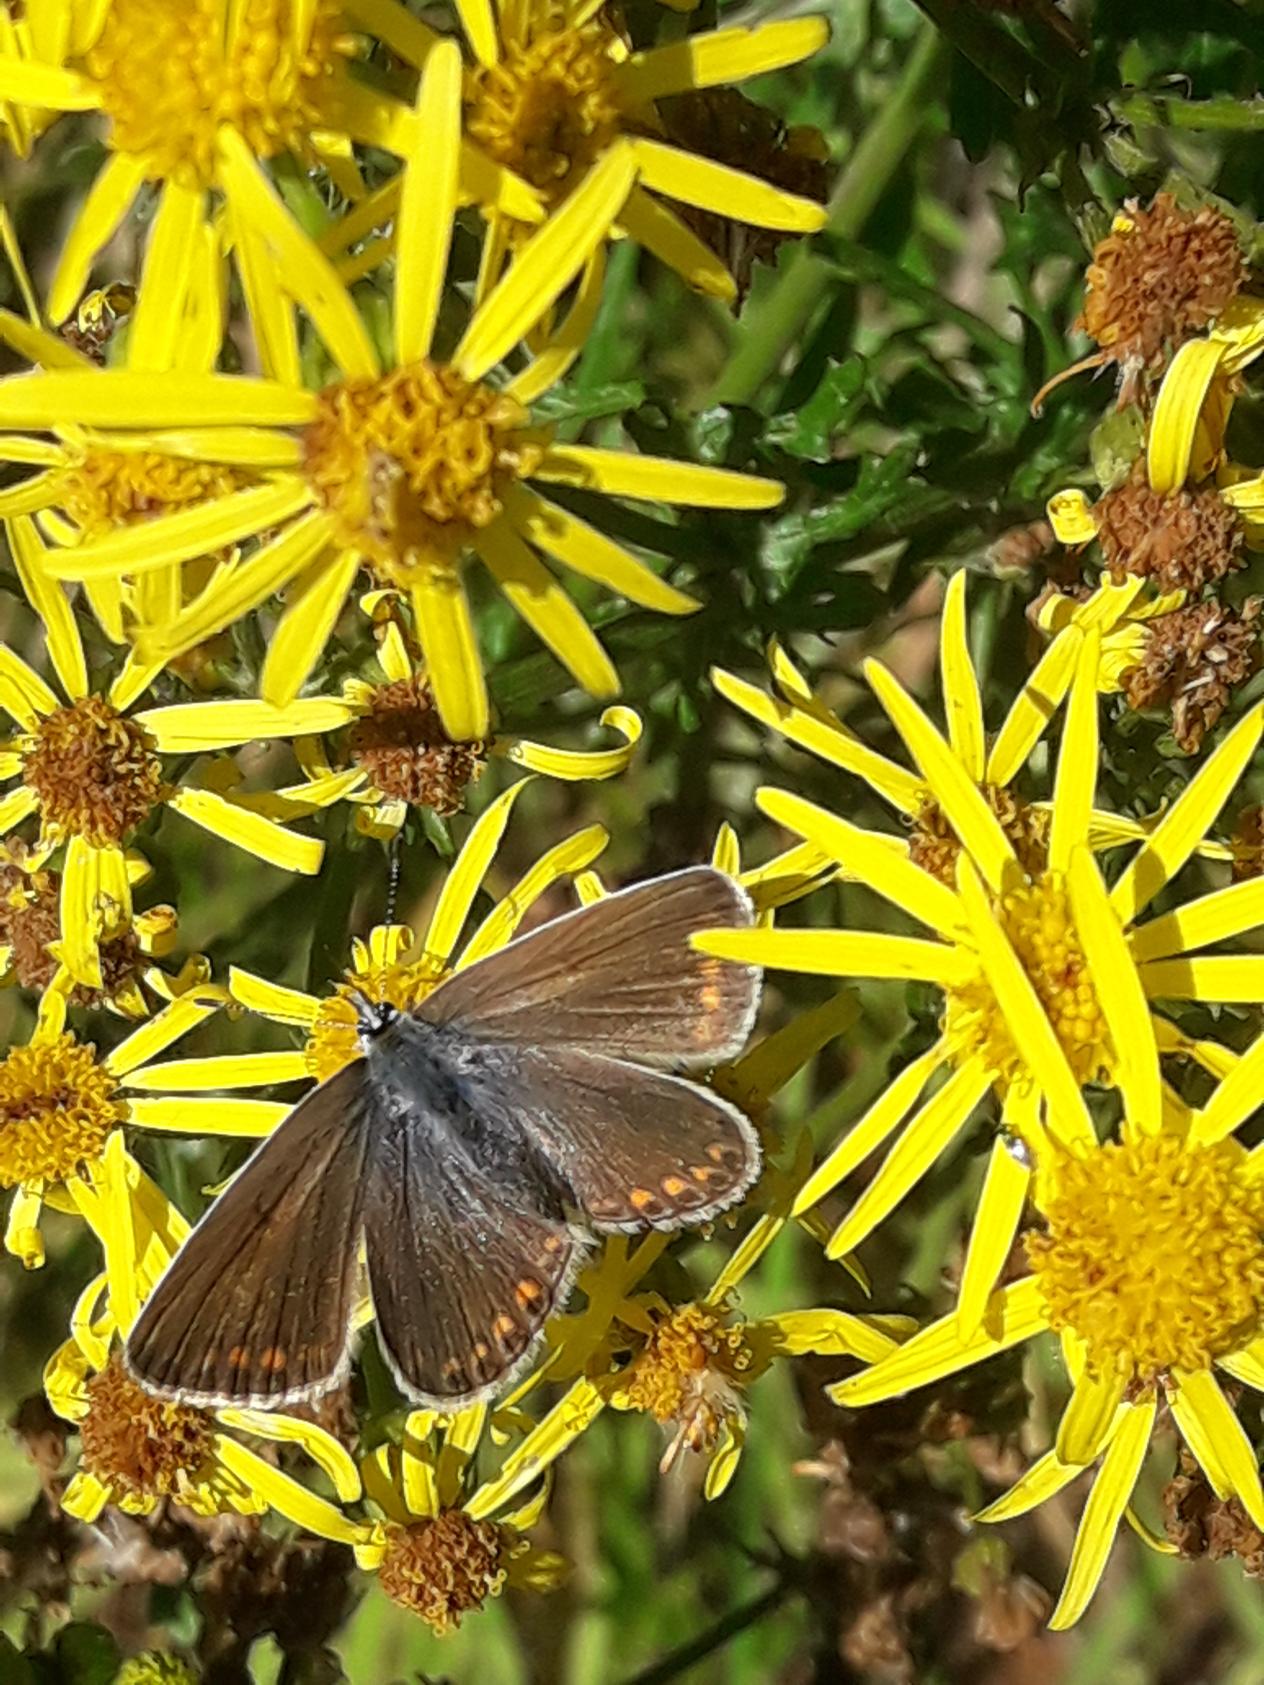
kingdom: Animalia
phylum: Arthropoda
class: Insecta
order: Lepidoptera
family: Lycaenidae
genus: Polyommatus
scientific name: Polyommatus icarus
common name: Almindelig blåfugl
